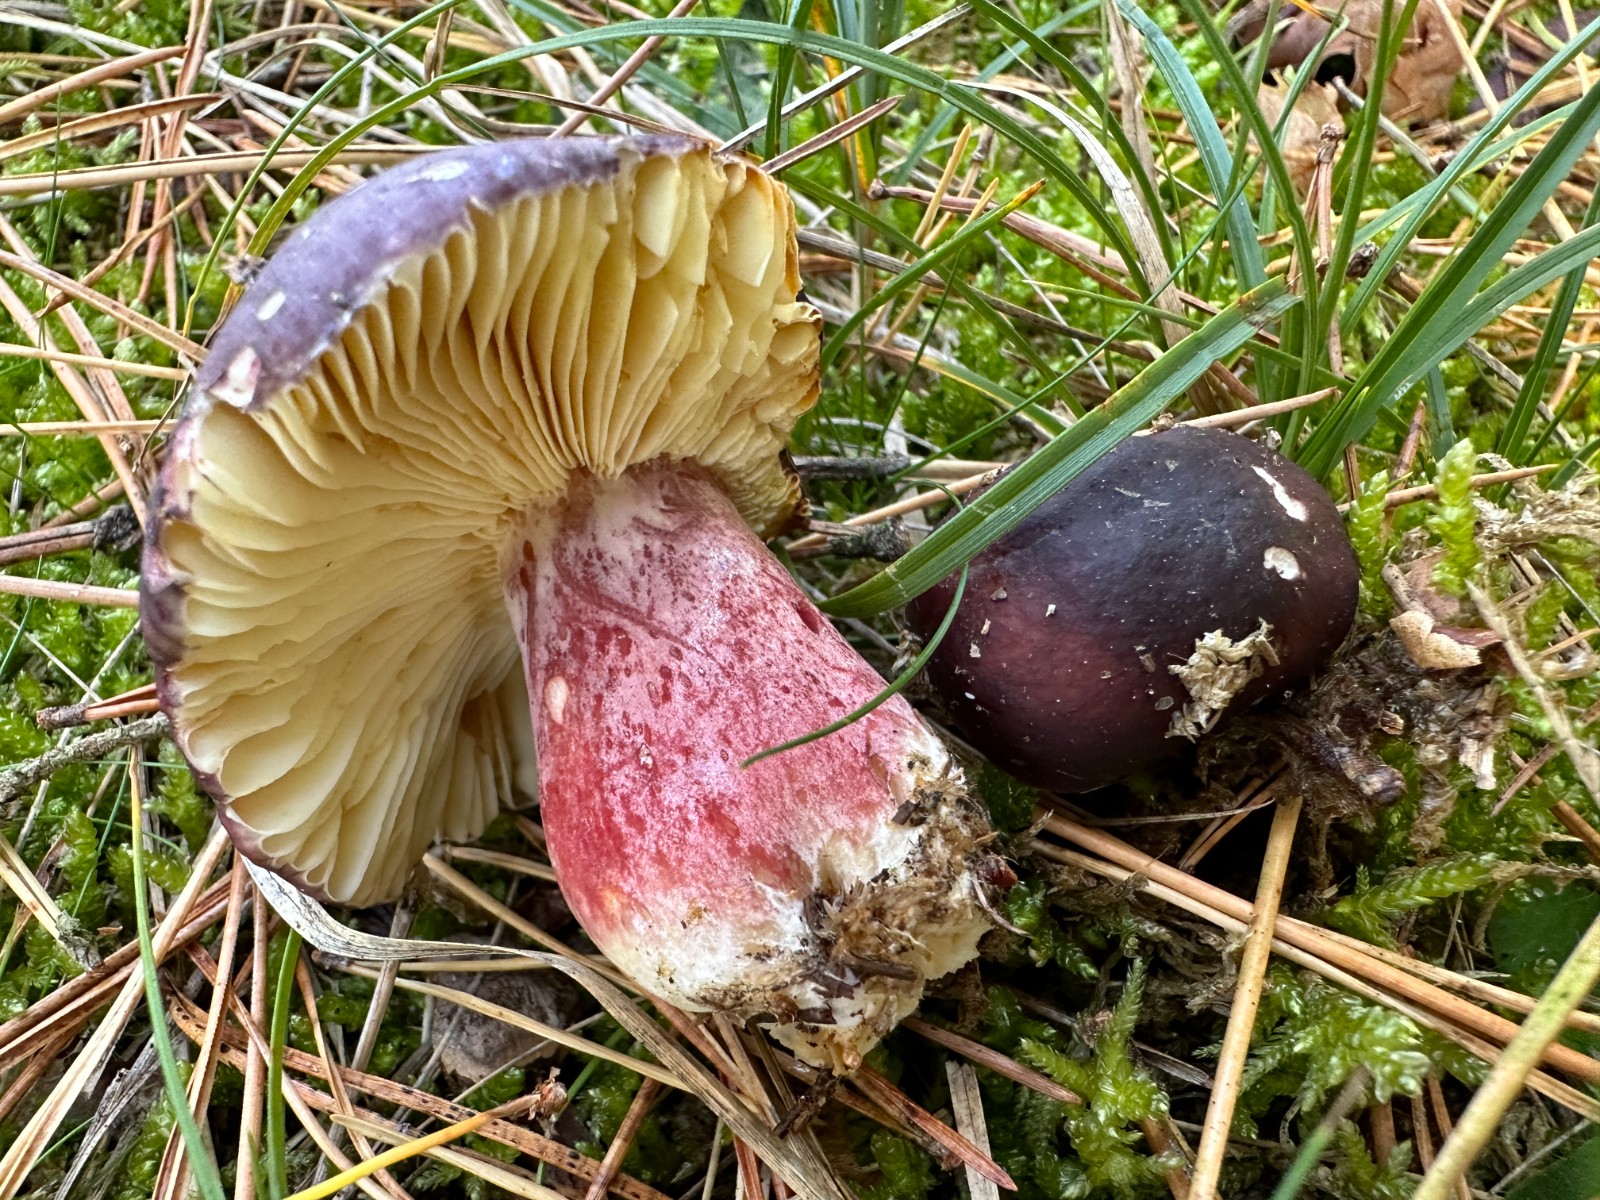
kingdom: Fungi
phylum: Basidiomycota
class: Agaricomycetes
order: Russulales
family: Russulaceae
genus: Russula
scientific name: Russula sardonia
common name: citronbladet skørhat
